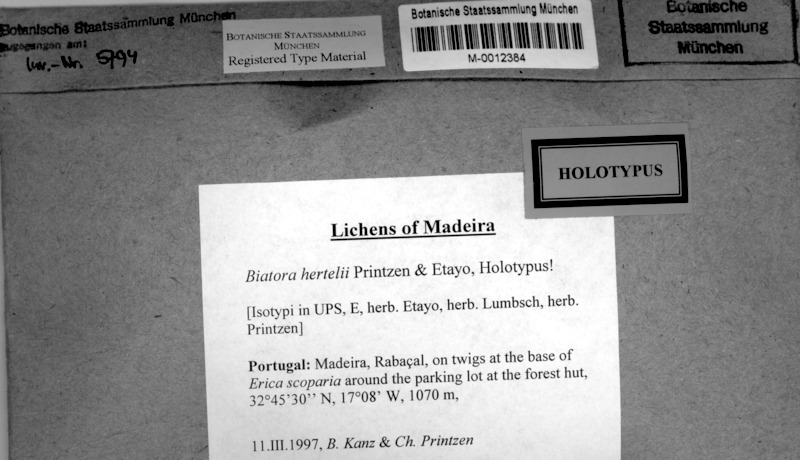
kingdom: Fungi
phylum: Ascomycota
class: Lecanoromycetes
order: Lecanorales
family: Ramalinaceae
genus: Biatora
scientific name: Biatora hertelii
